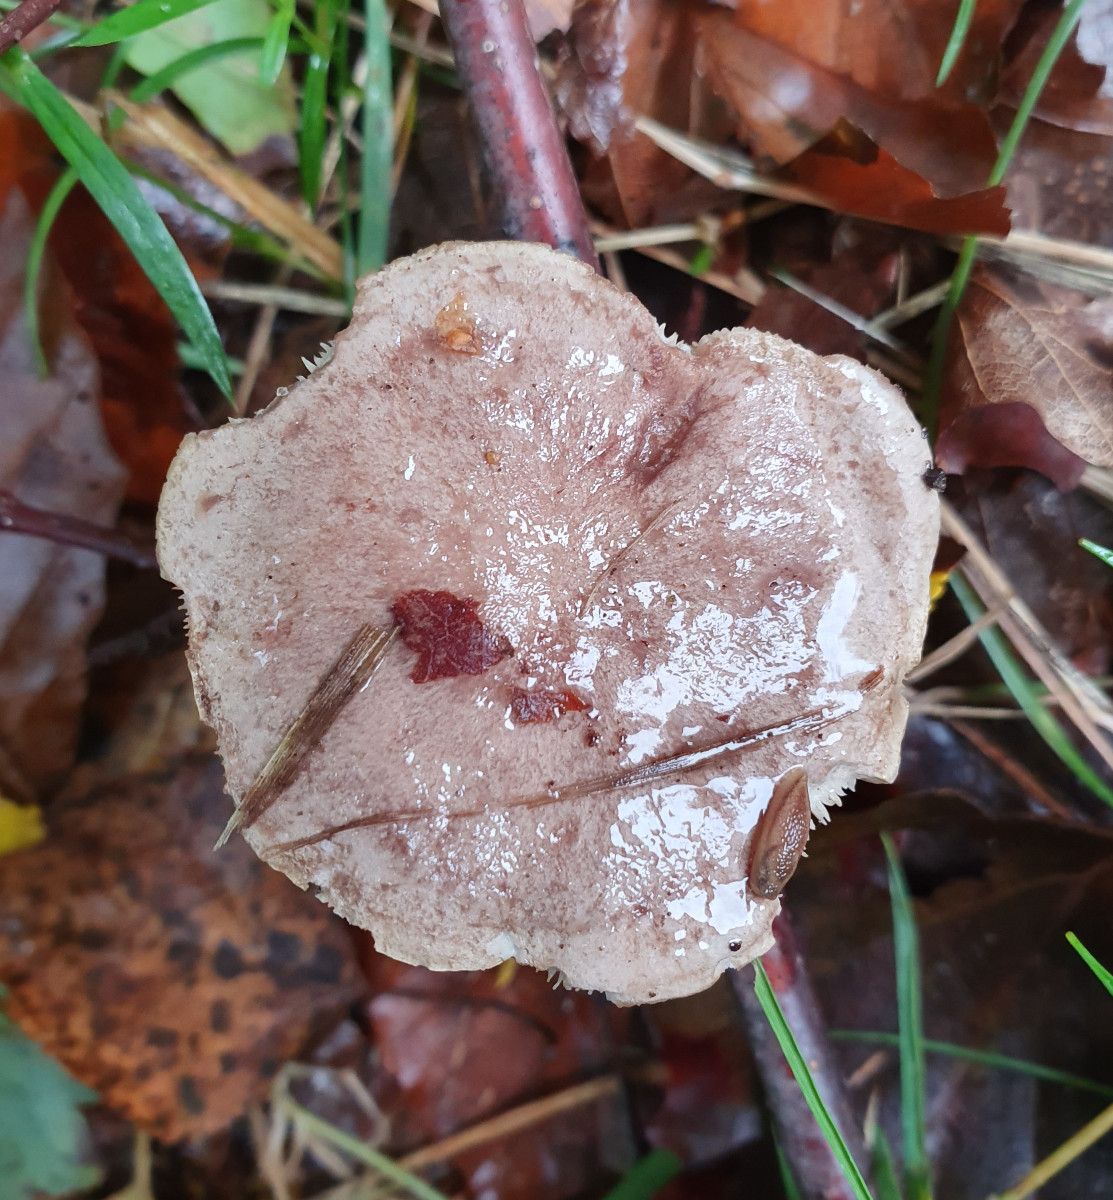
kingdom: Fungi
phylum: Basidiomycota
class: Agaricomycetes
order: Russulales
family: Russulaceae
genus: Lactarius
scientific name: Lactarius blennius
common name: dråbeplettet mælkehat
